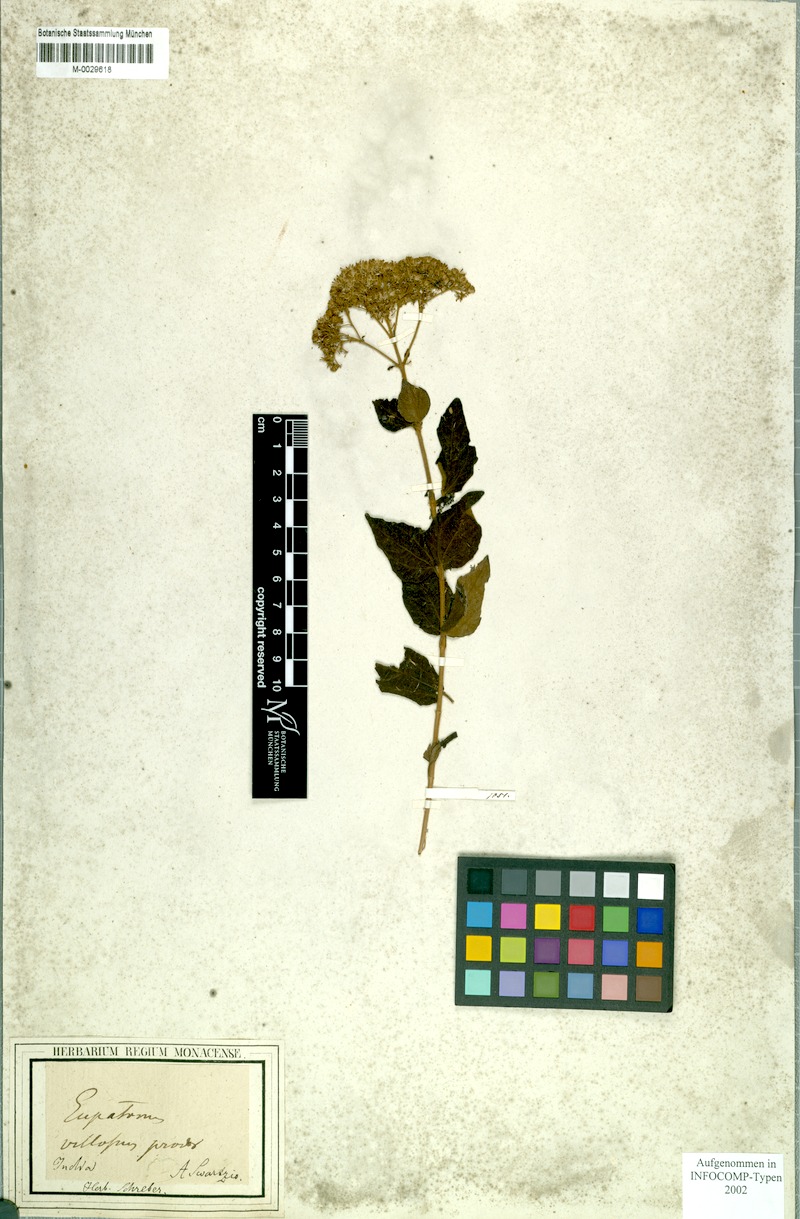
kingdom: Plantae
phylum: Tracheophyta
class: Magnoliopsida
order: Asterales
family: Asteraceae
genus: Koanophyllon
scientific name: Koanophyllon villosum
